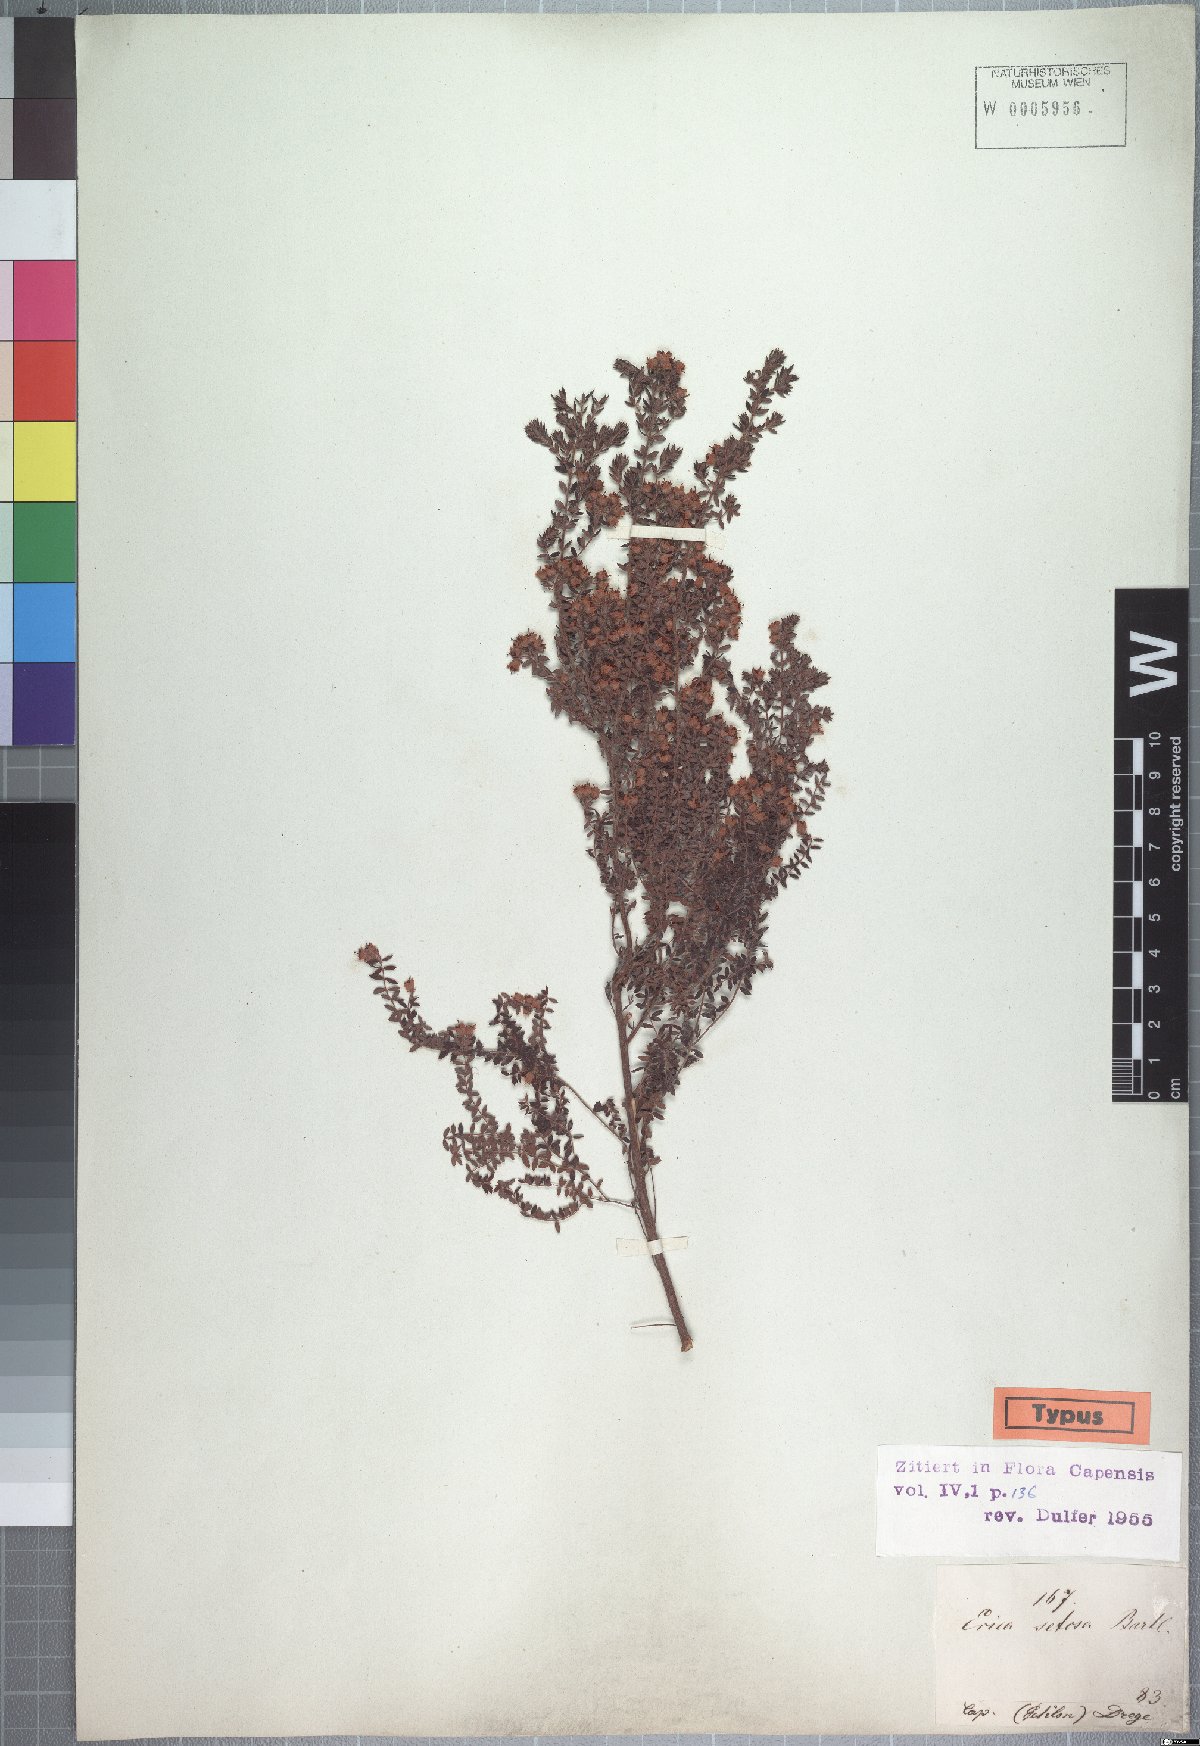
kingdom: Plantae
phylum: Tracheophyta
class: Magnoliopsida
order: Ericales
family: Ericaceae
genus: Erica
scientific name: Erica setosa
